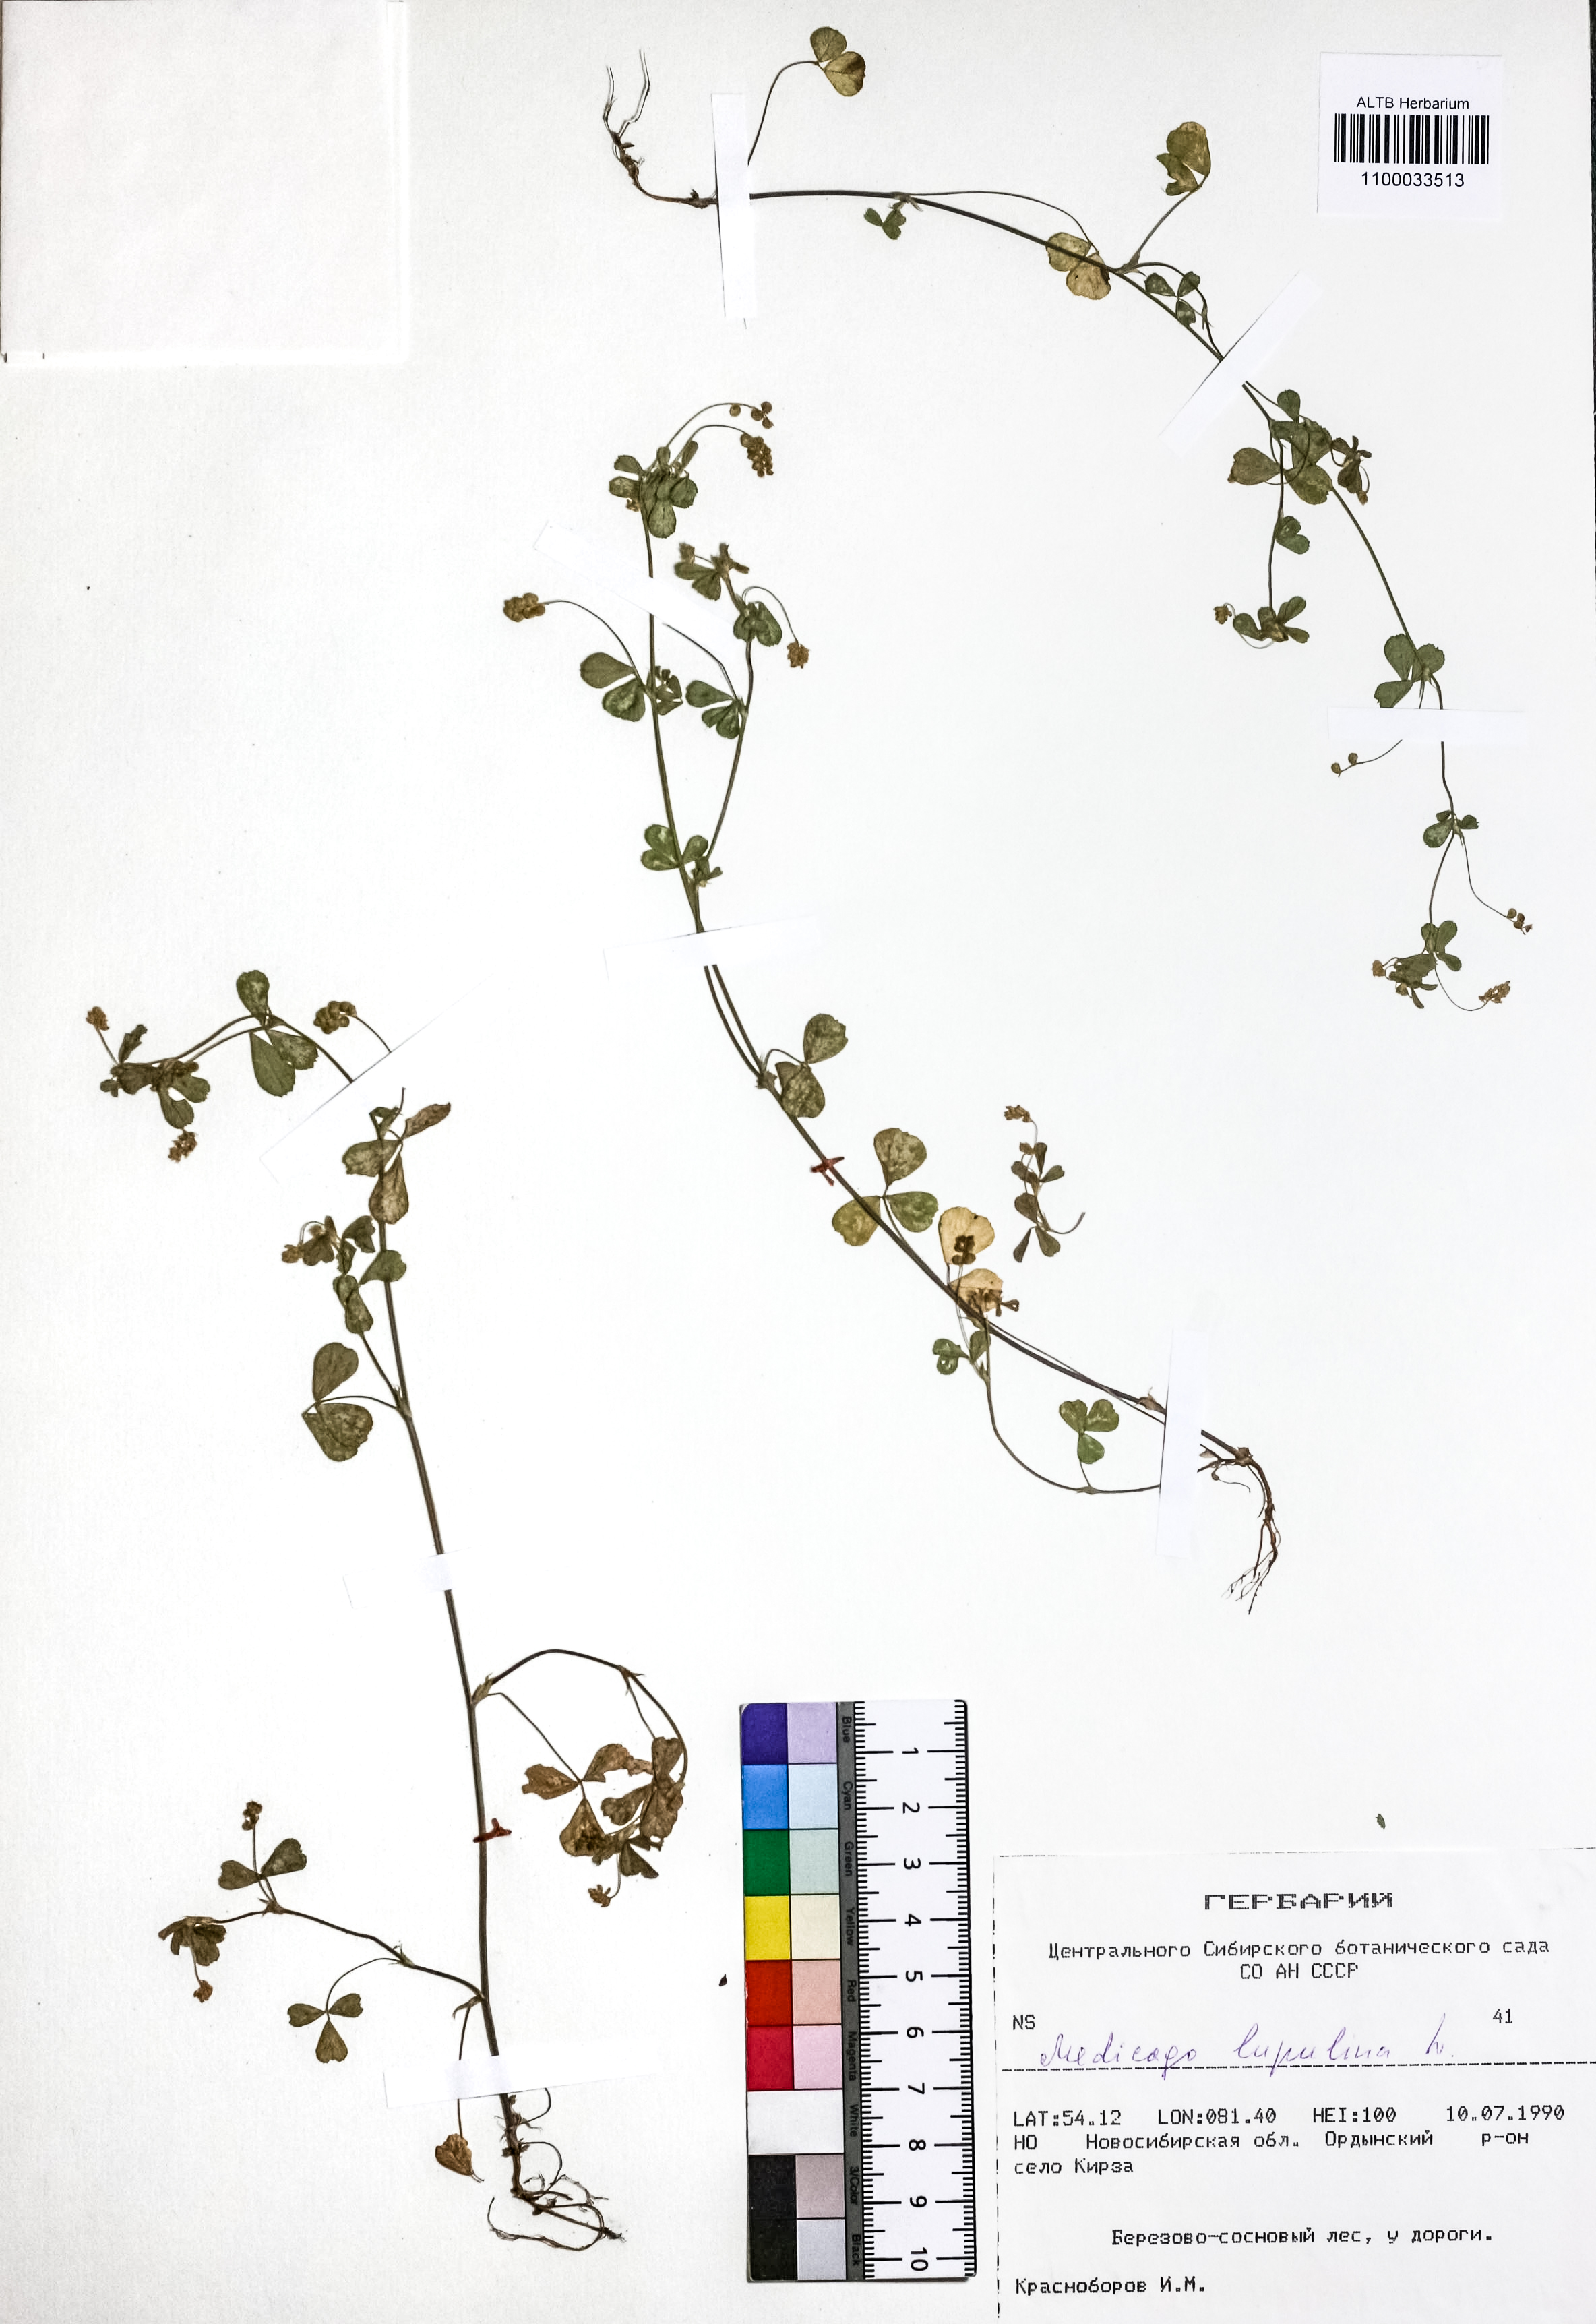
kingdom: Plantae
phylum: Tracheophyta
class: Magnoliopsida
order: Fabales
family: Fabaceae
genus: Medicago
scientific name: Medicago lupulina
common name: Black medick
